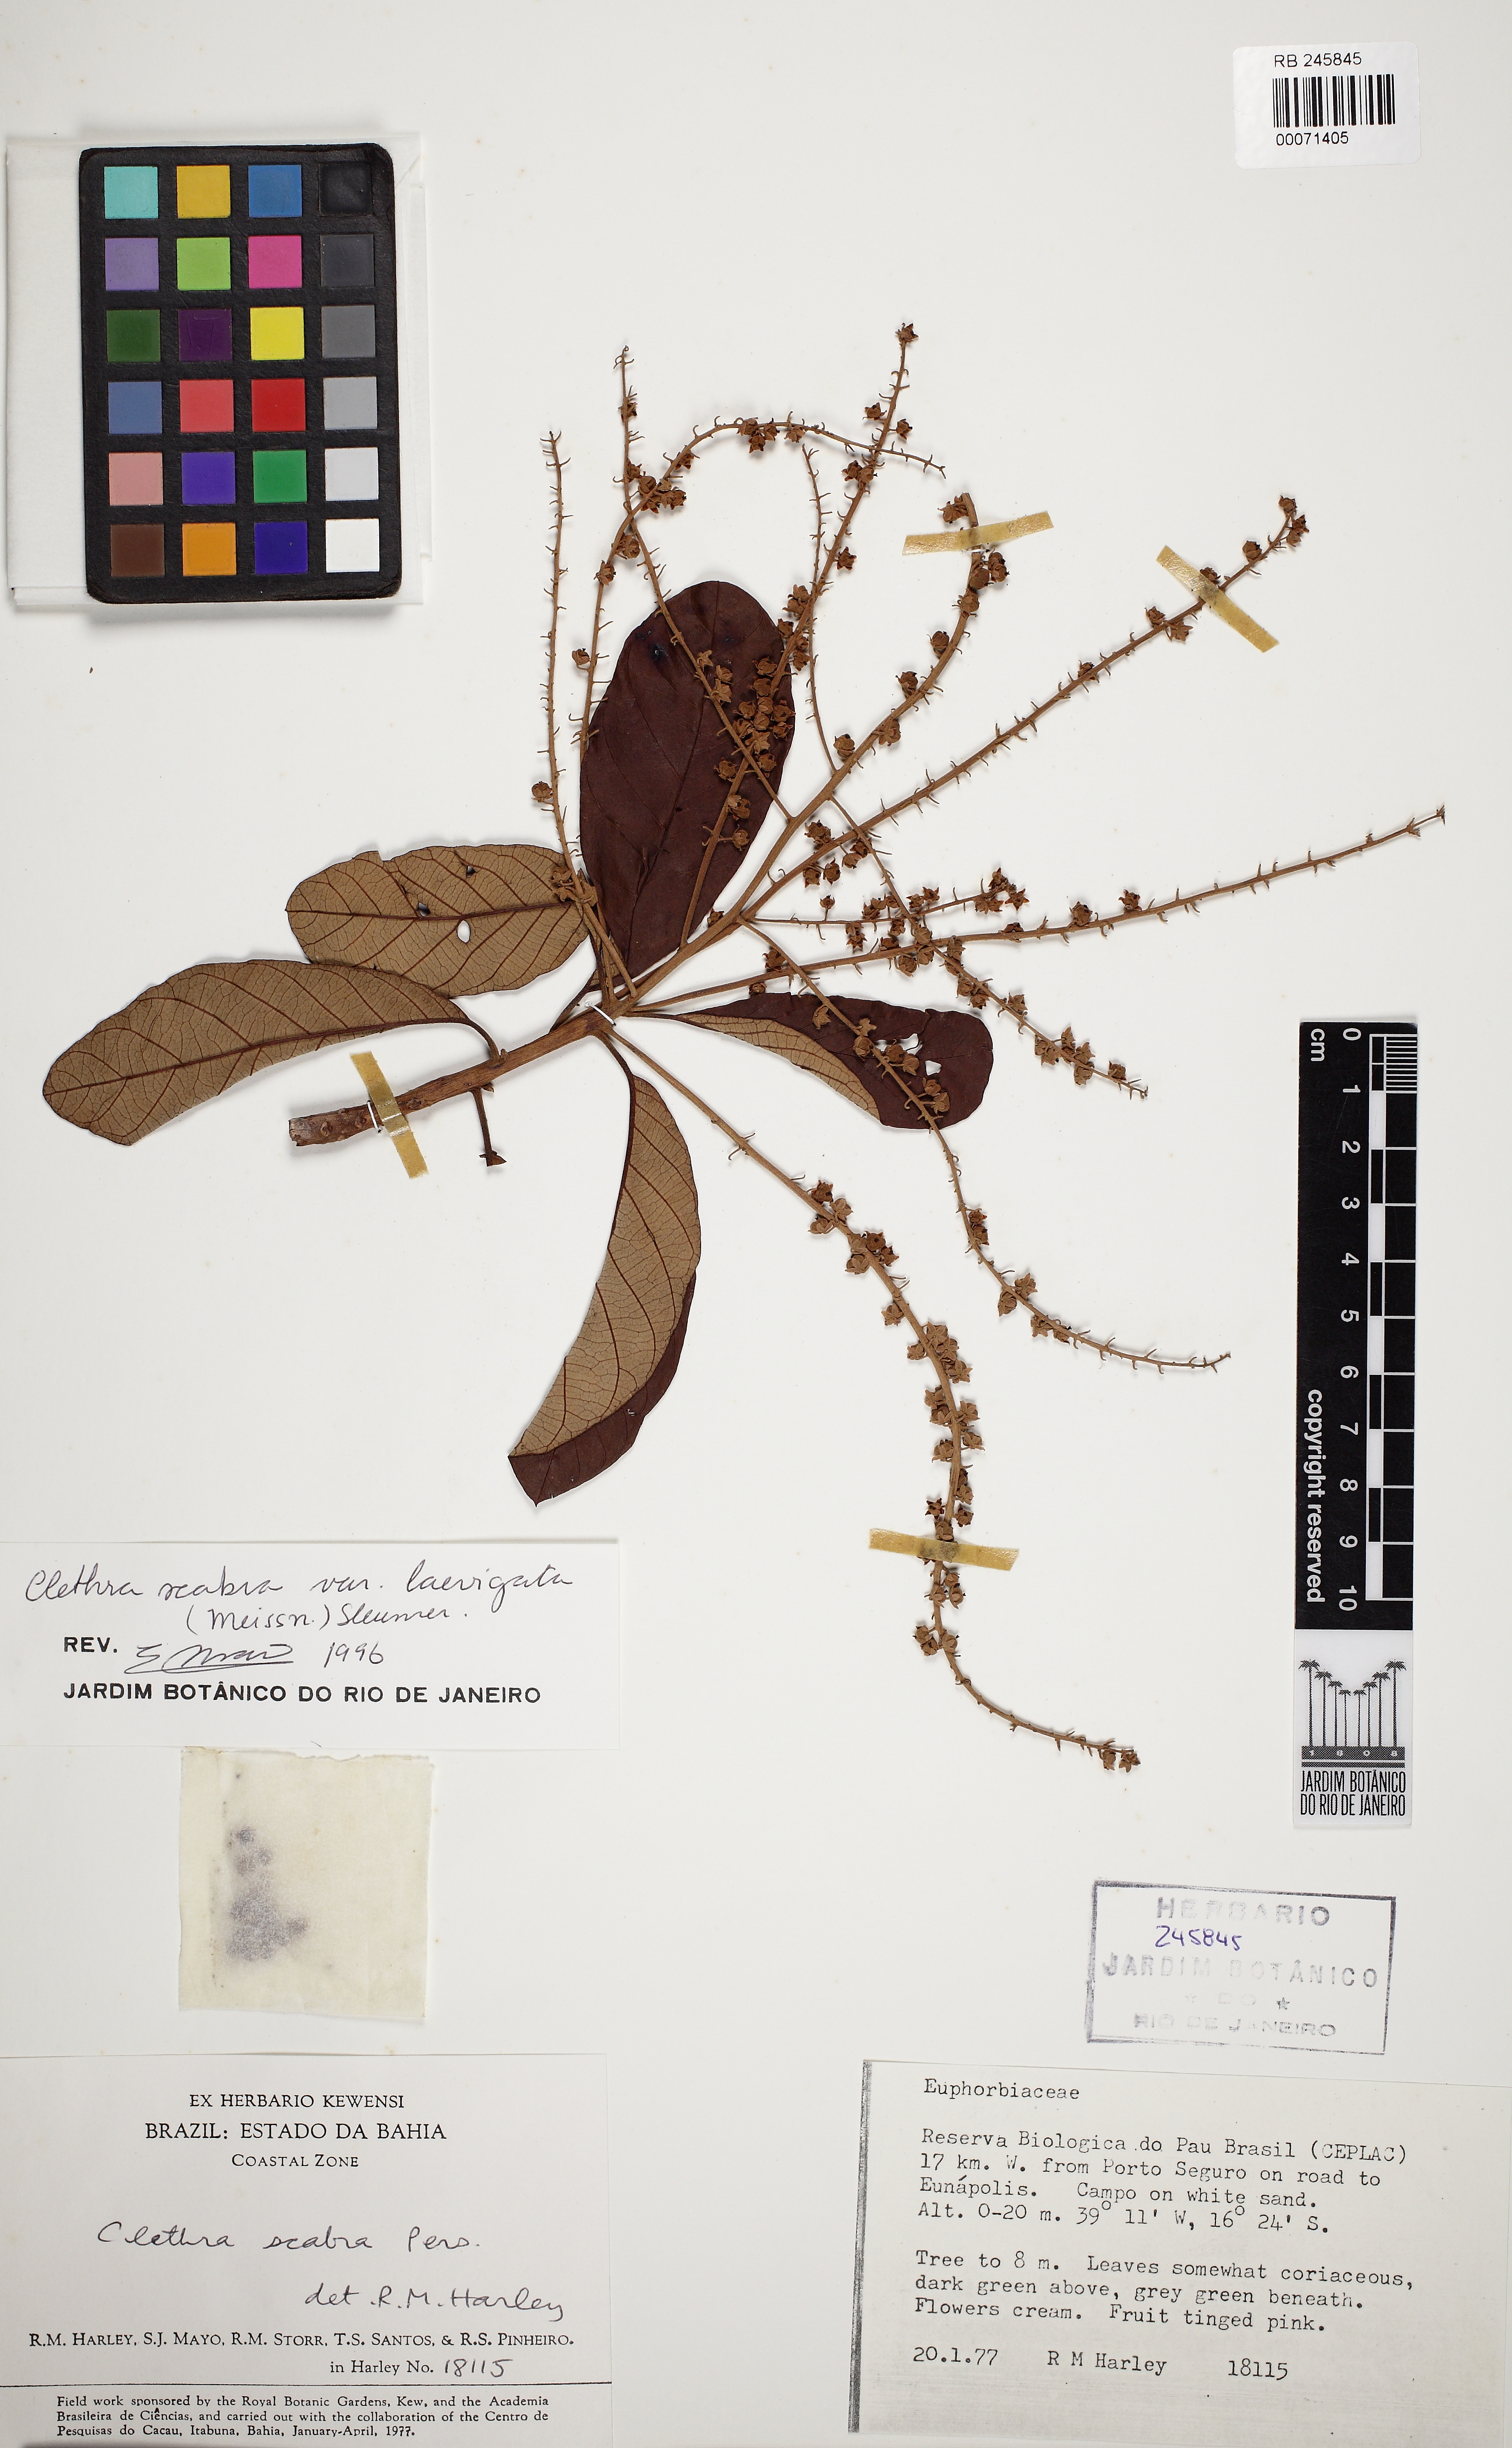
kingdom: Plantae
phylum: Tracheophyta
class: Magnoliopsida
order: Ericales
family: Clethraceae
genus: Clethra
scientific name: Clethra scabra
